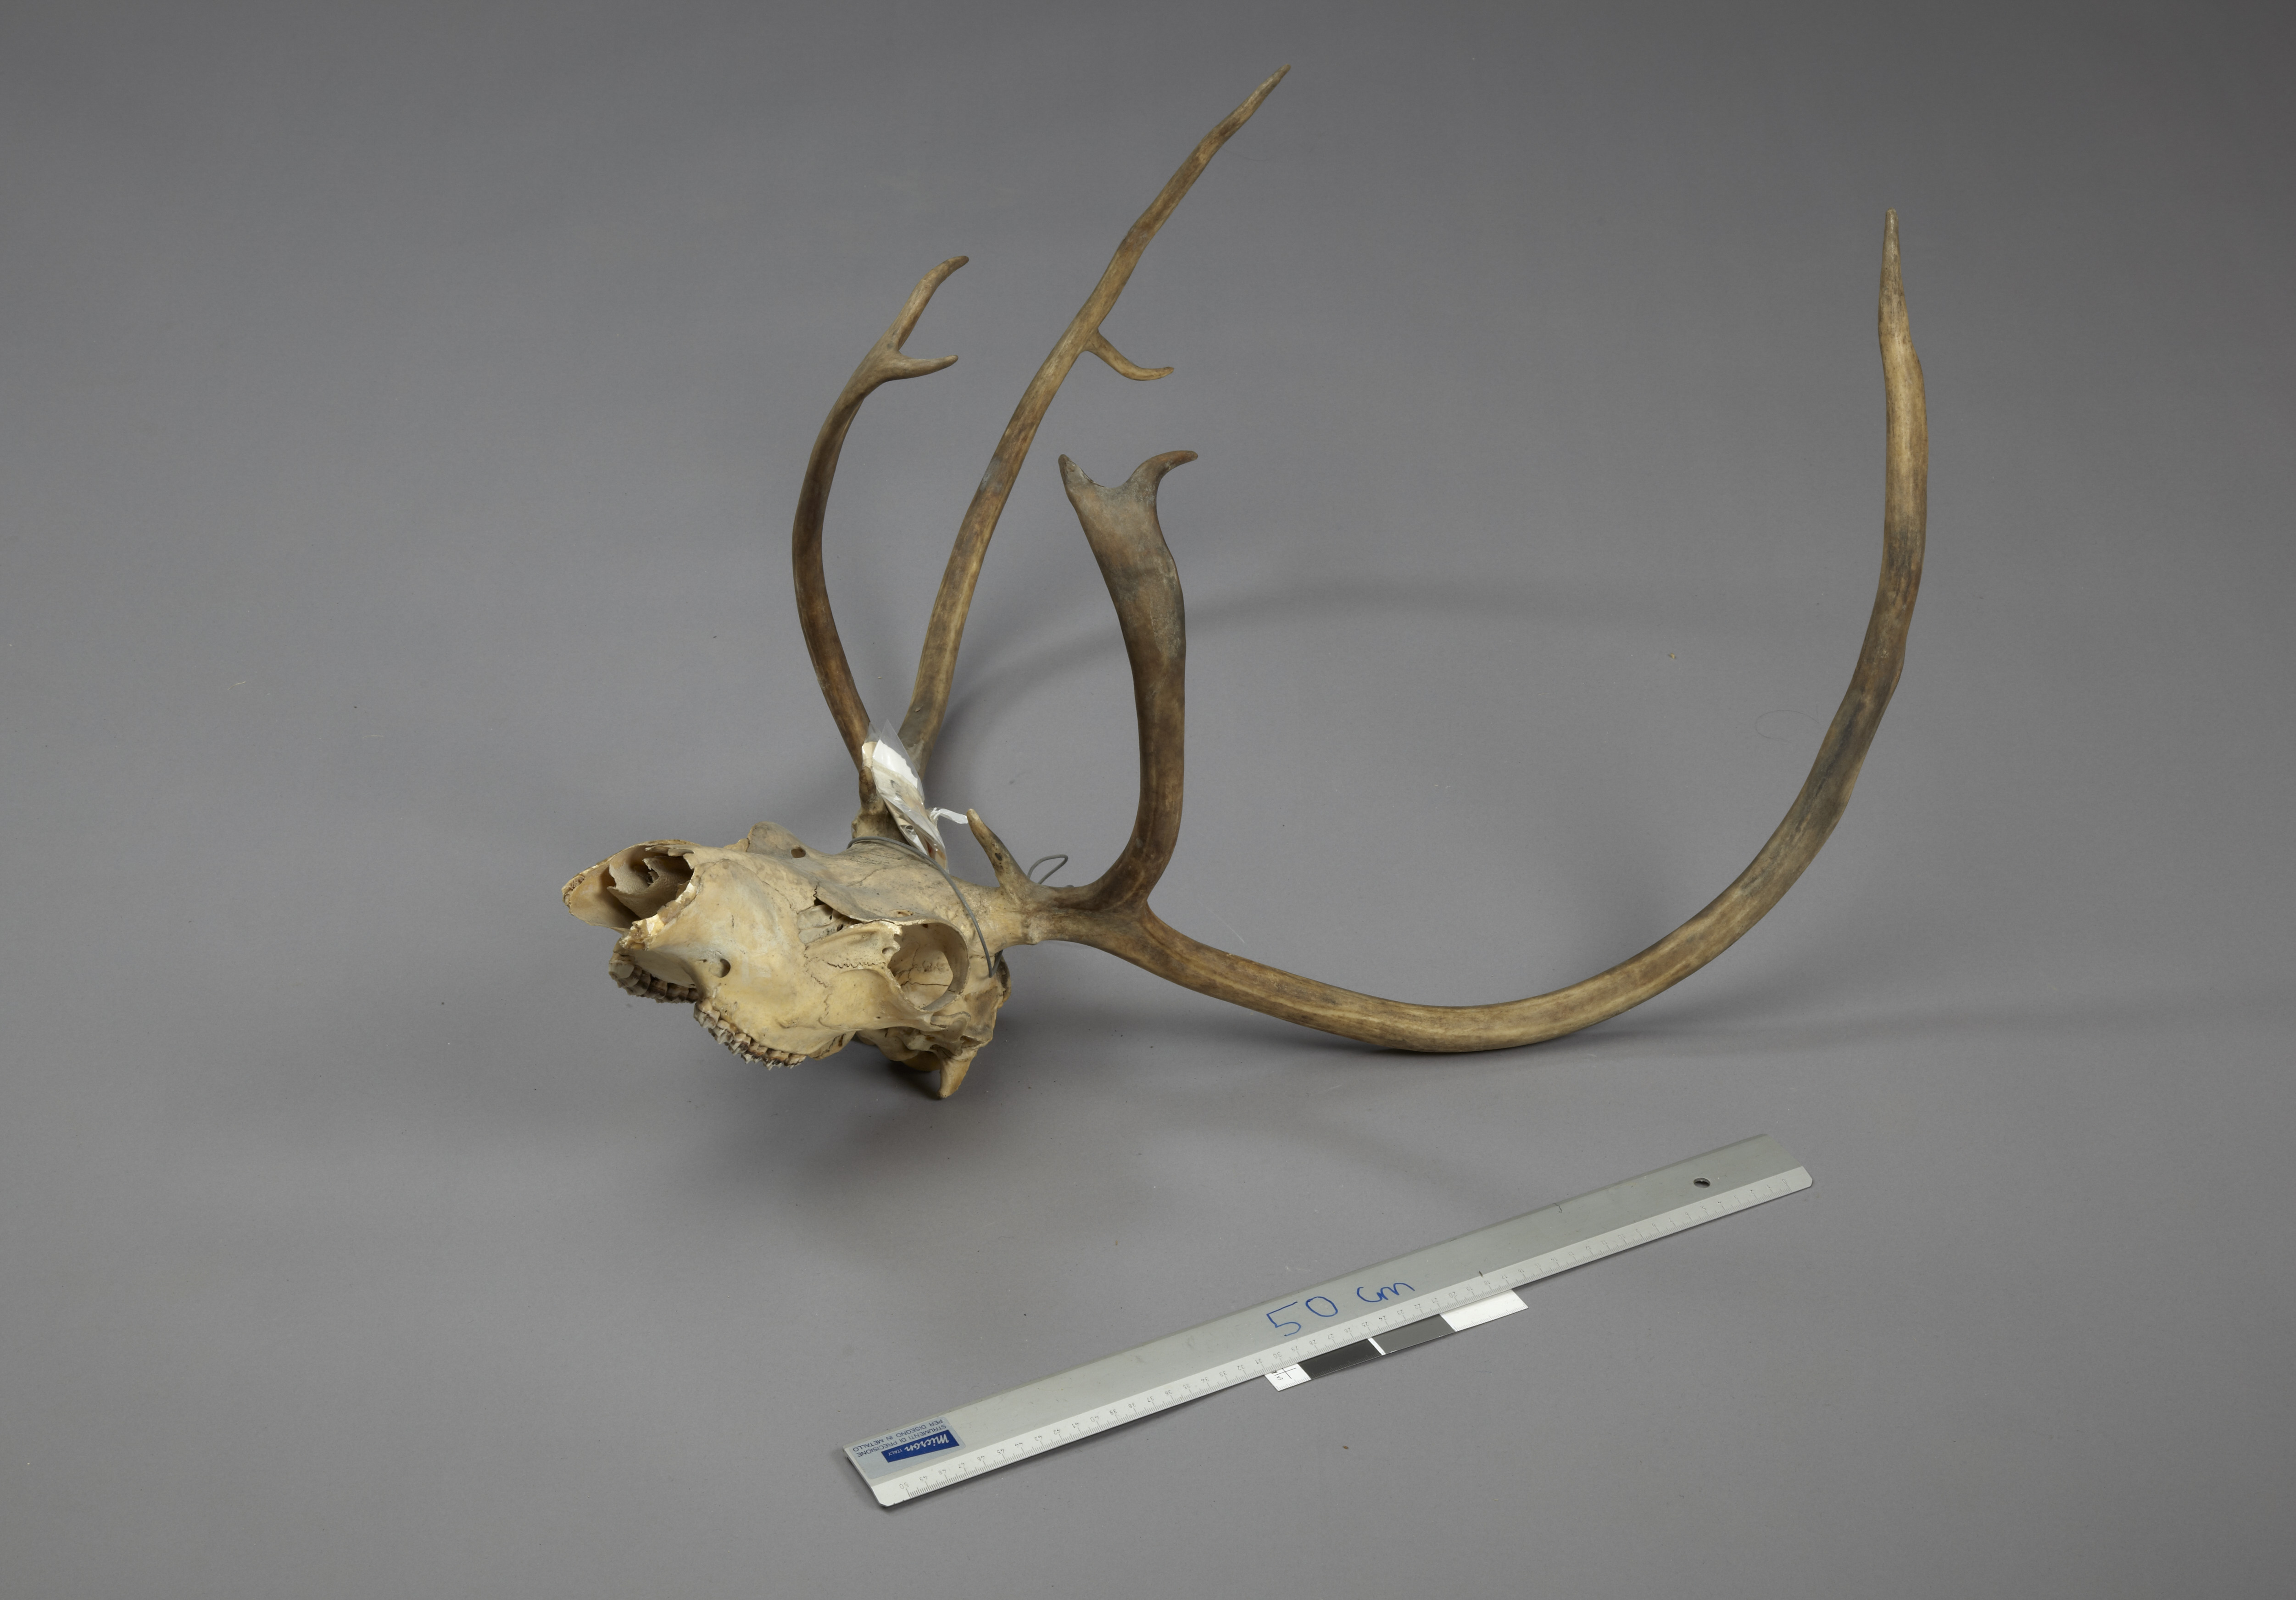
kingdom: Animalia
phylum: Chordata
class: Mammalia
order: Artiodactyla
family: Cervidae
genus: Rangifer
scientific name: Rangifer tarandus
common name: Reindeer
